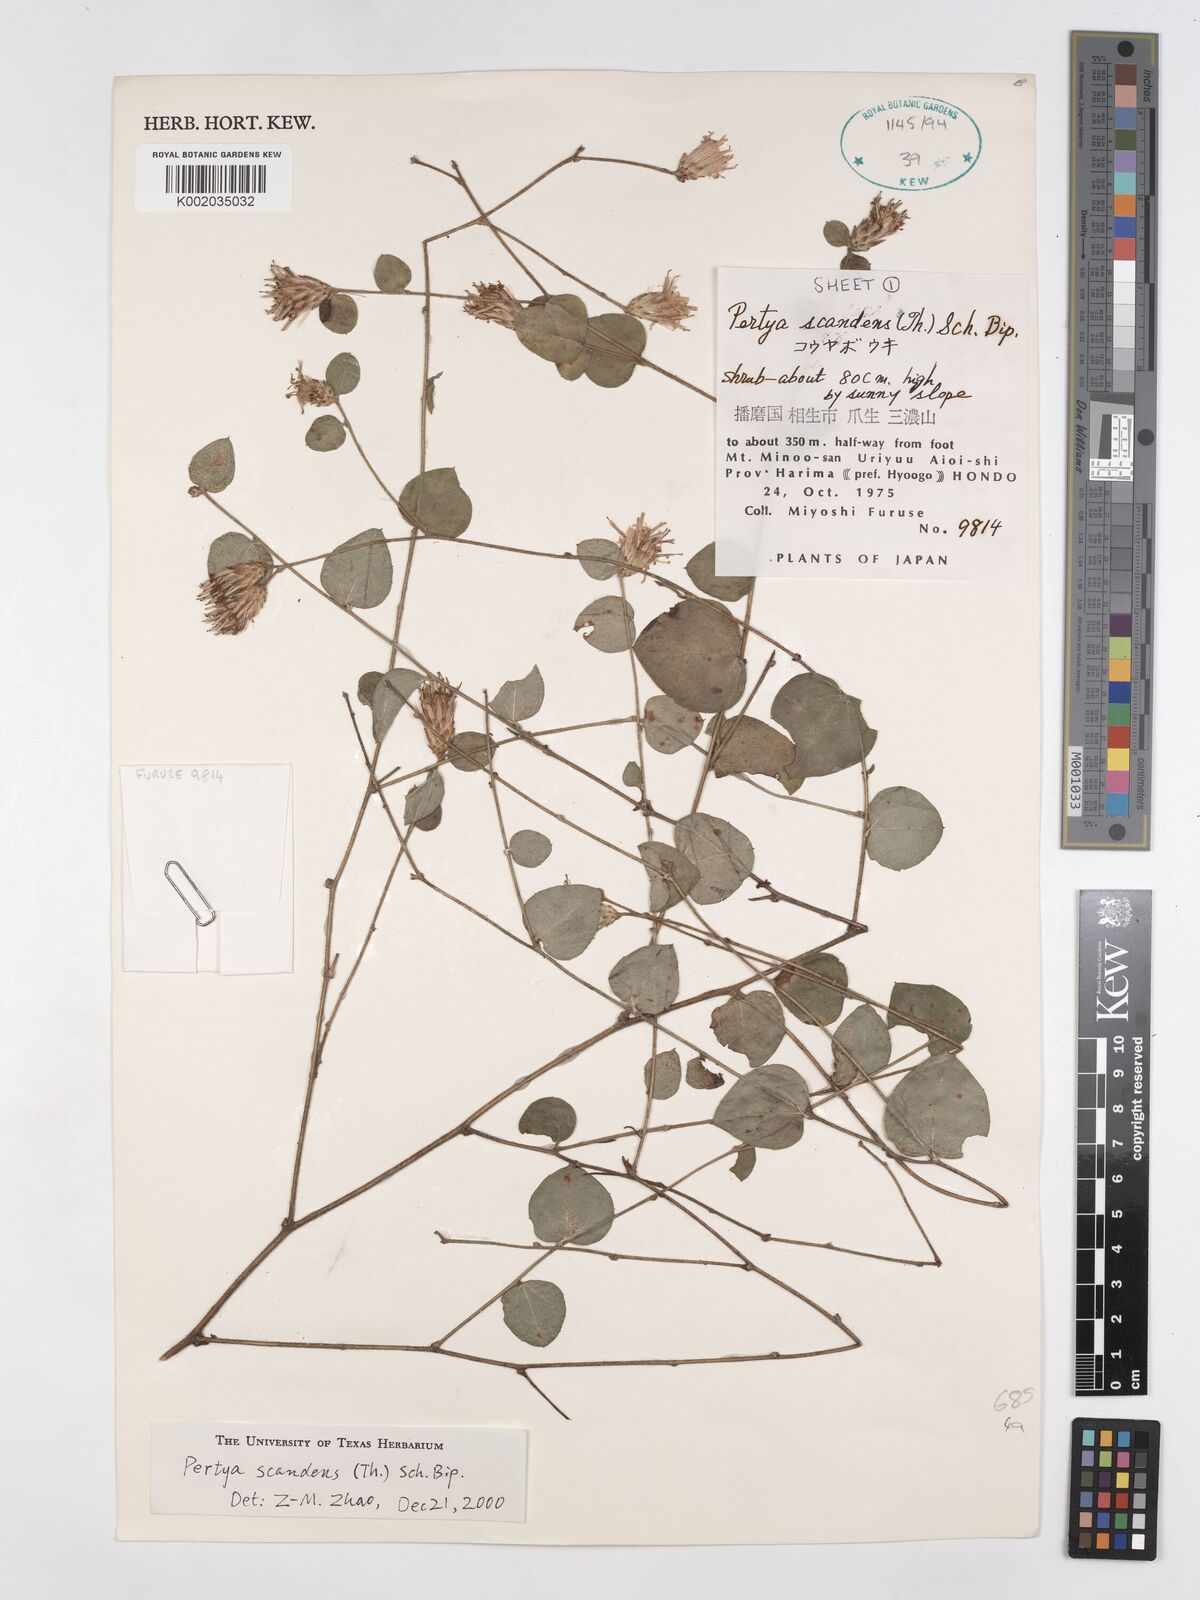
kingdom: Plantae
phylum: Tracheophyta
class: Magnoliopsida
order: Asterales
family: Asteraceae
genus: Pertya
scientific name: Pertya scandens
